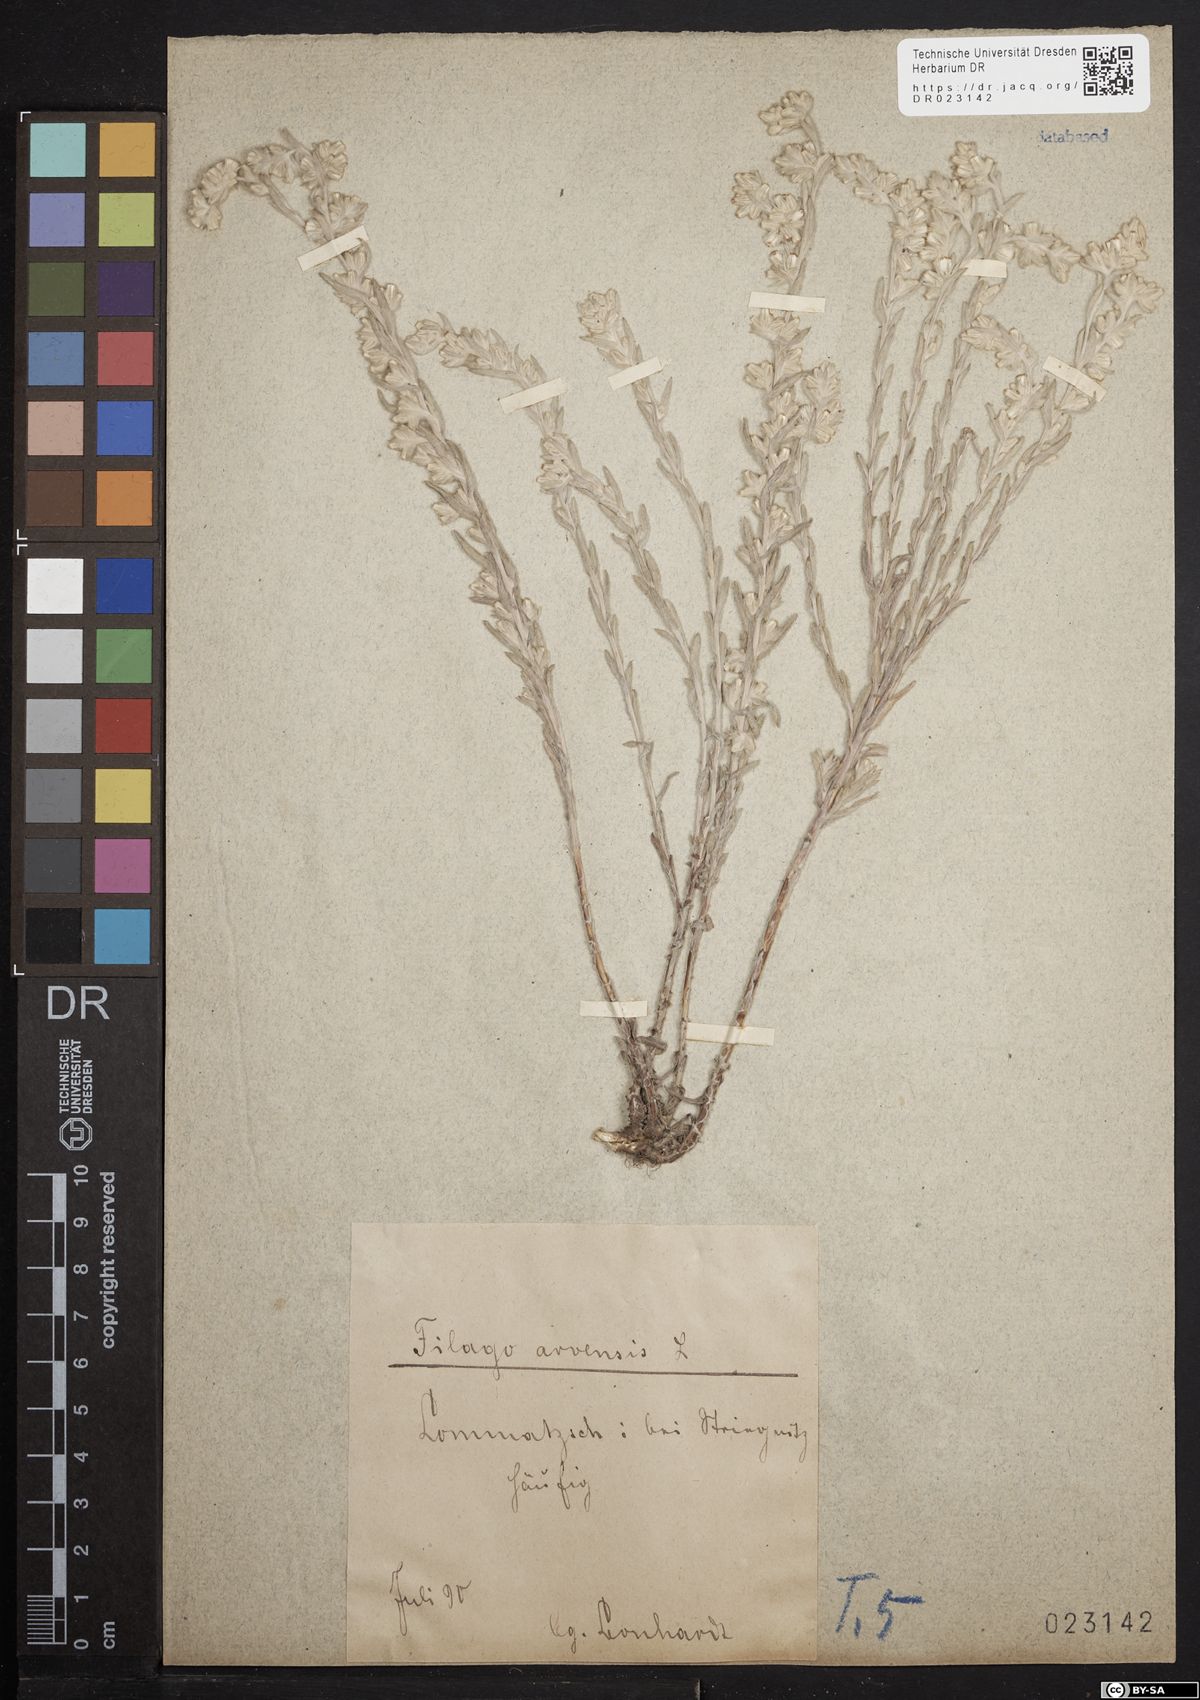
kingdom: Plantae
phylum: Tracheophyta
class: Magnoliopsida
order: Asterales
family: Asteraceae
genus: Filago
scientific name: Filago arvensis
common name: Field cudweed
